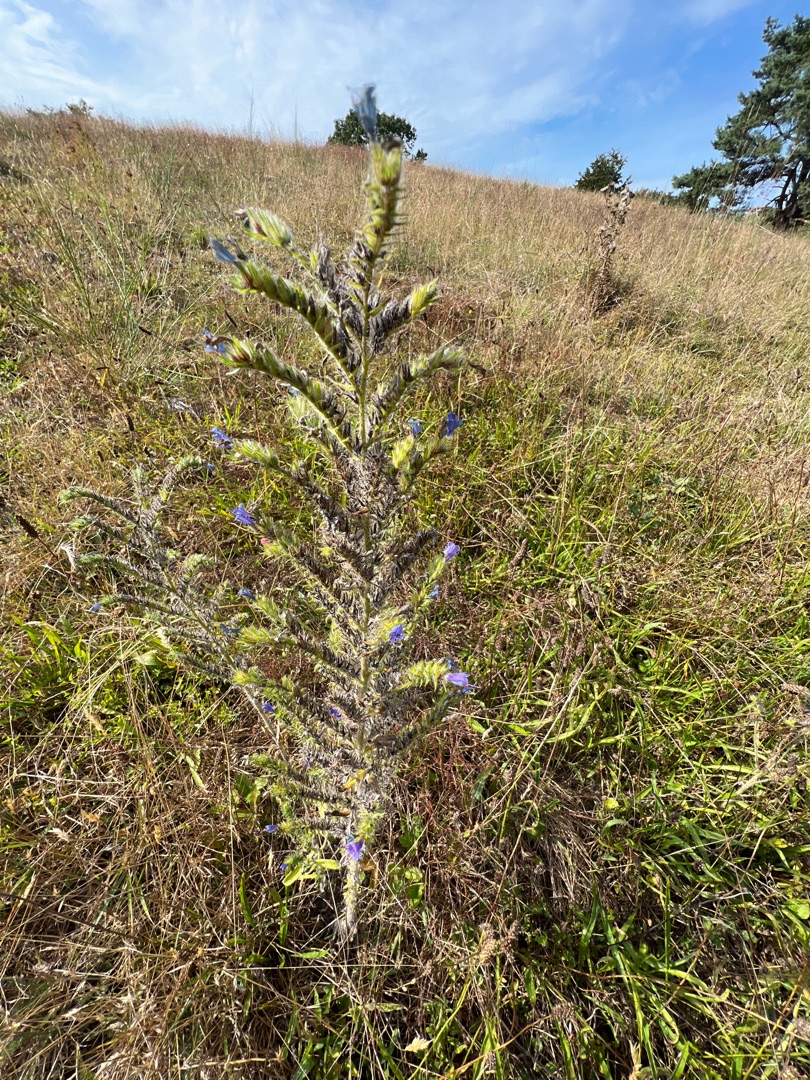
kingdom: Plantae
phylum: Tracheophyta
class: Magnoliopsida
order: Boraginales
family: Boraginaceae
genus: Echium
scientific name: Echium vulgare
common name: Slangehoved
